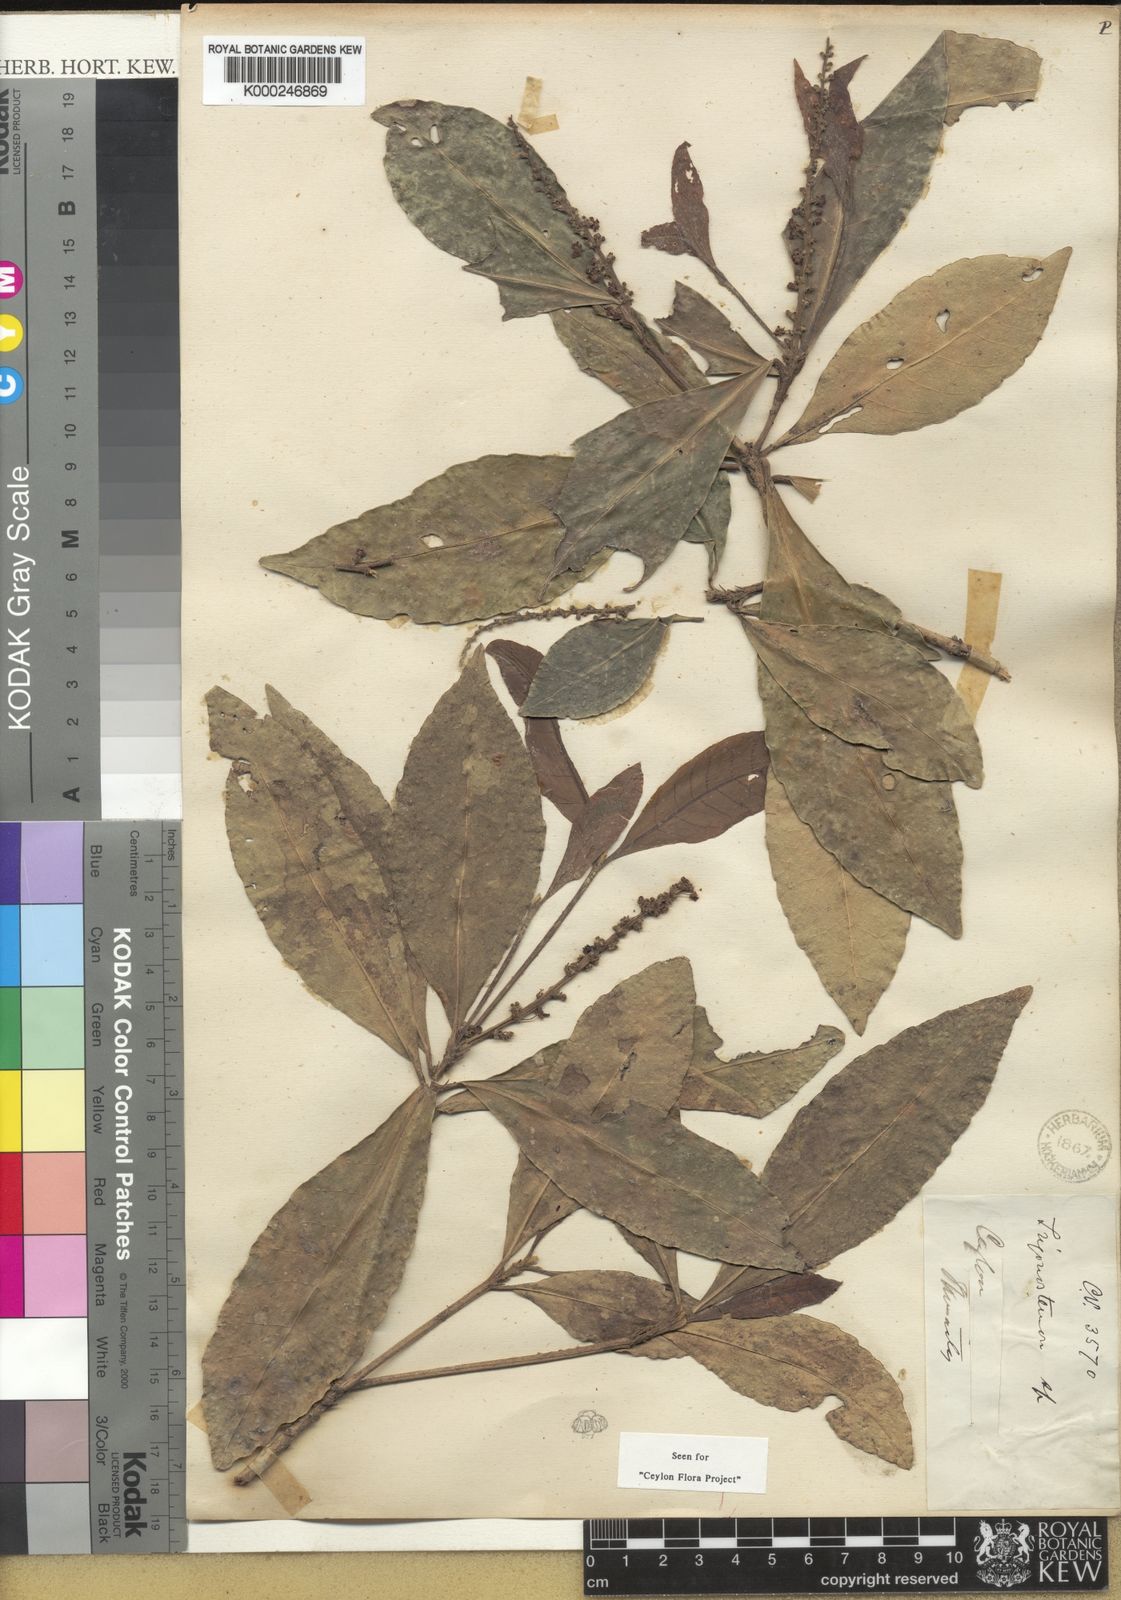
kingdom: Plantae
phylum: Tracheophyta
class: Magnoliopsida
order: Malpighiales
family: Euphorbiaceae
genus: Trigonostemon
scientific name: Trigonostemon nemoralis
